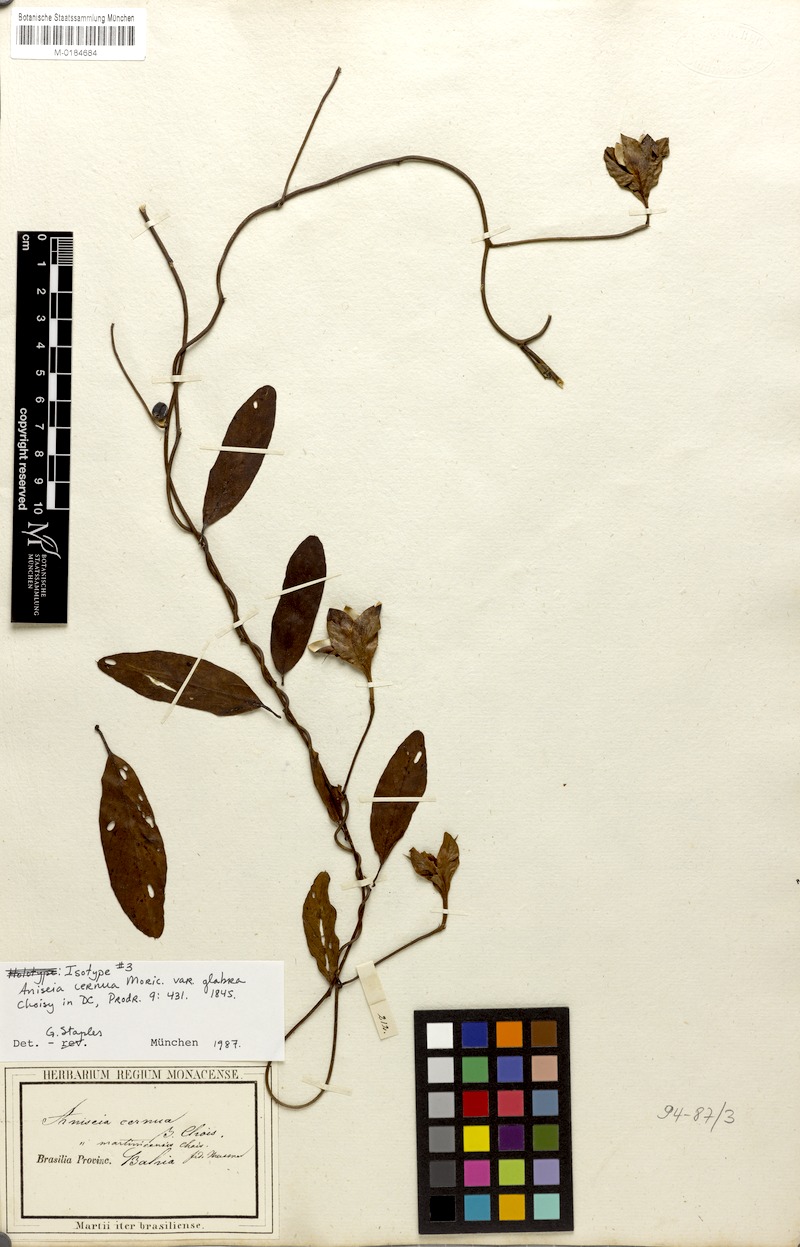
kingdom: Plantae
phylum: Tracheophyta
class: Magnoliopsida
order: Solanales
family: Convolvulaceae
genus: Aniseia
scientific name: Aniseia cernua
